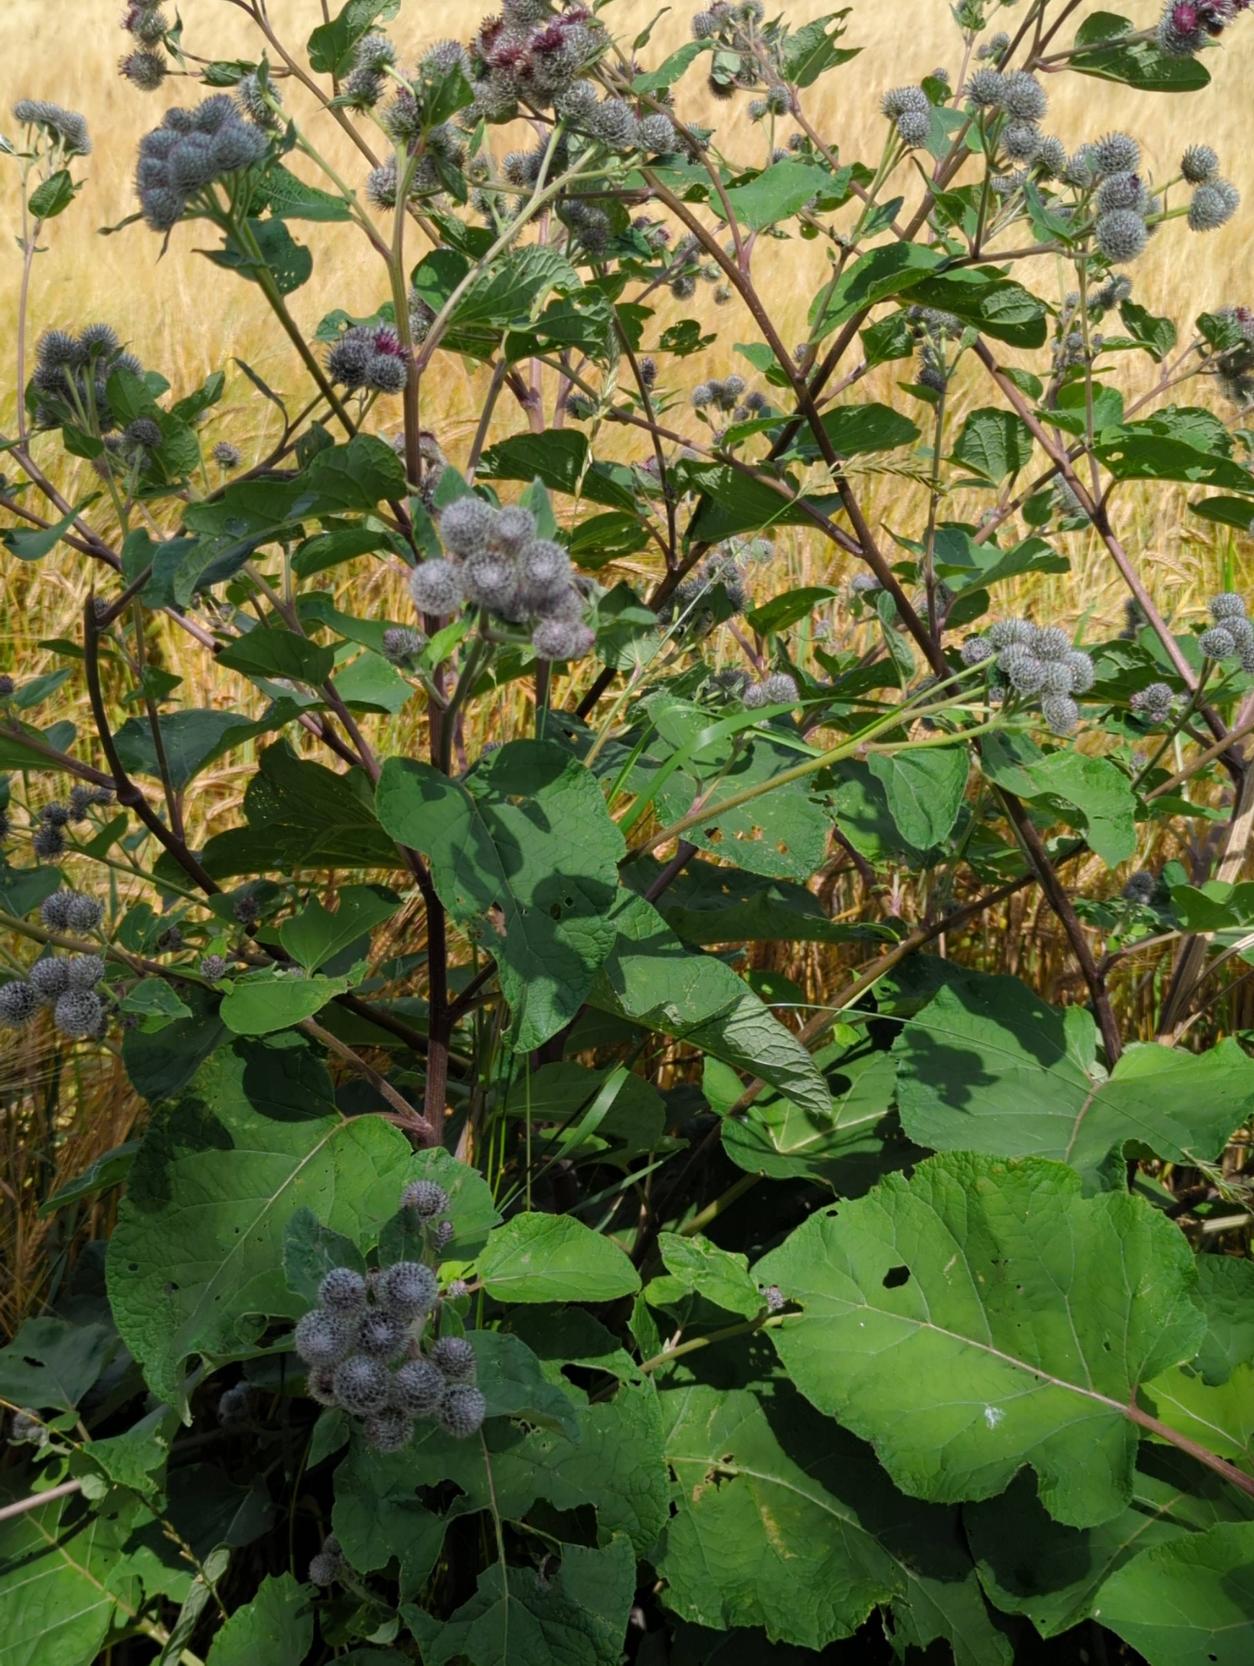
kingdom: Plantae
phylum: Tracheophyta
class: Magnoliopsida
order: Asterales
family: Asteraceae
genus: Arctium
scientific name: Arctium tomentosum
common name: Filtet burre
